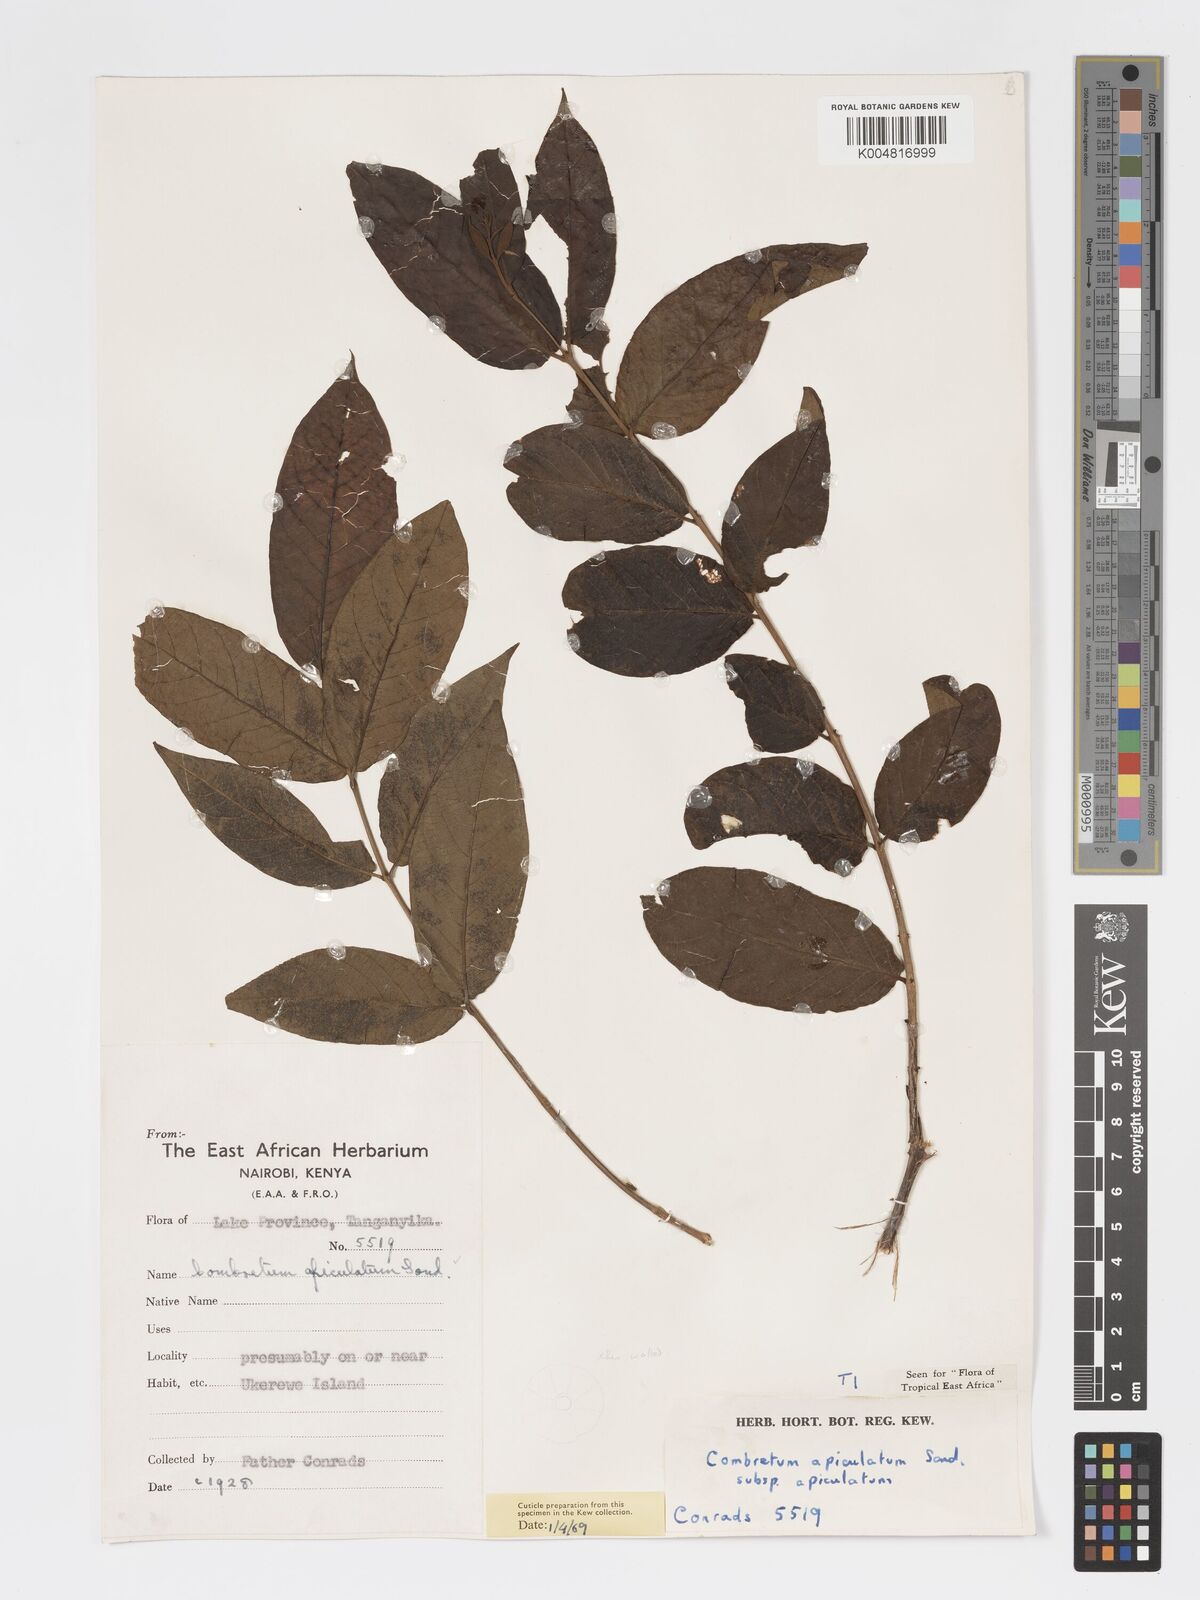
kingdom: Plantae
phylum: Tracheophyta
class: Magnoliopsida
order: Myrtales
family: Combretaceae
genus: Combretum
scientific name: Combretum apiculatum
